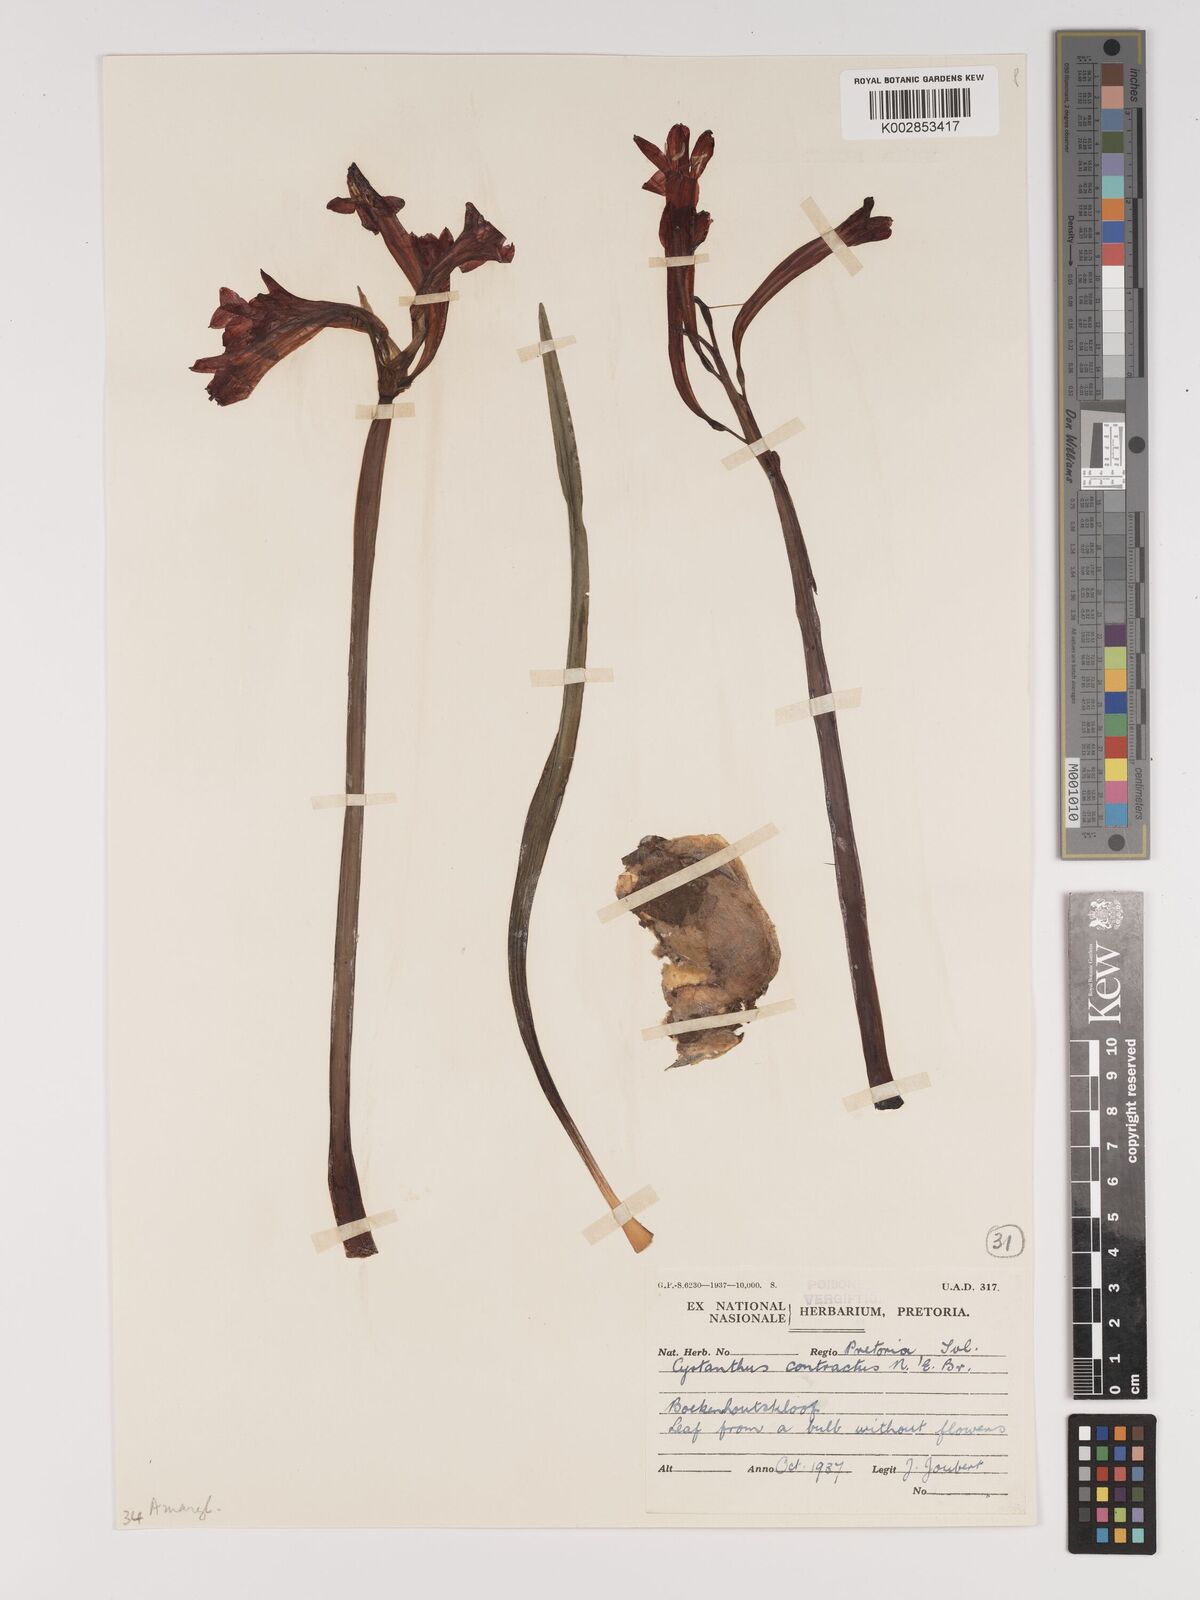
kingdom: Plantae
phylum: Tracheophyta
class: Liliopsida
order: Asparagales
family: Amaryllidaceae
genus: Cyrtanthus
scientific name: Cyrtanthus contractus
